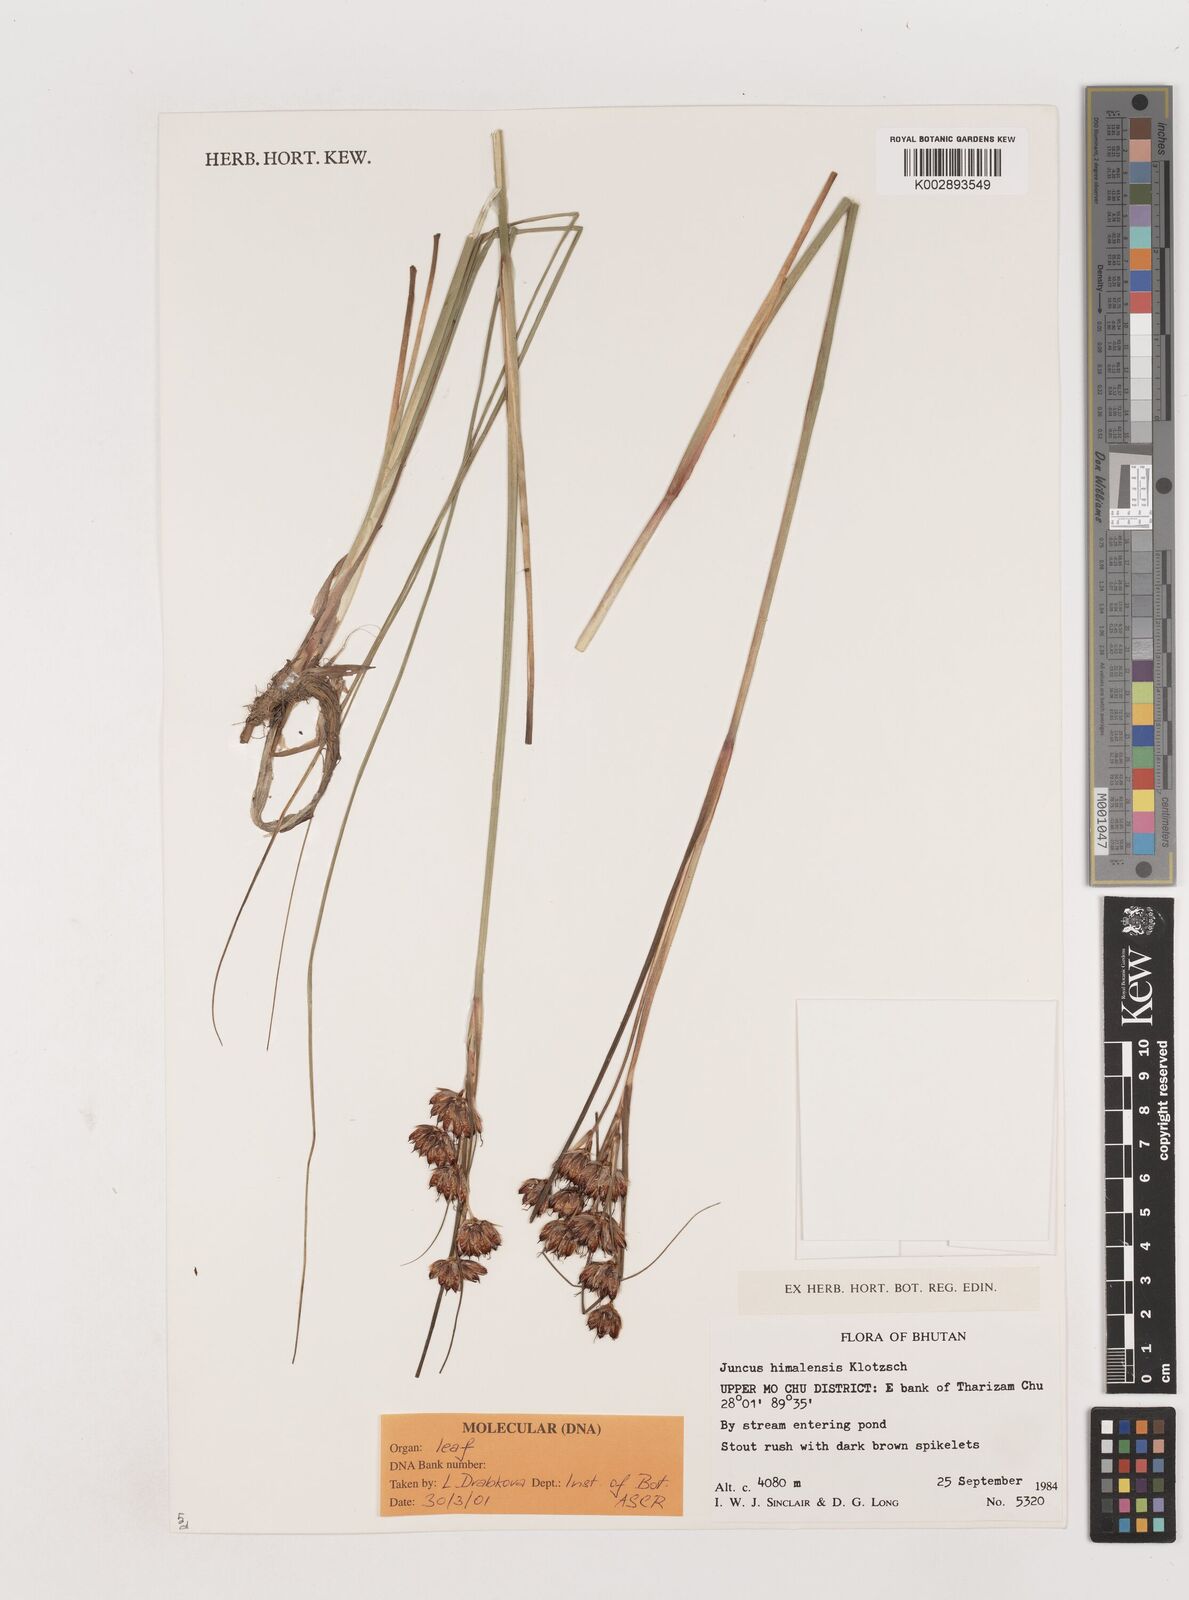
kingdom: Plantae
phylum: Tracheophyta
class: Liliopsida
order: Poales
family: Juncaceae
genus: Juncus
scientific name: Juncus himalensis
